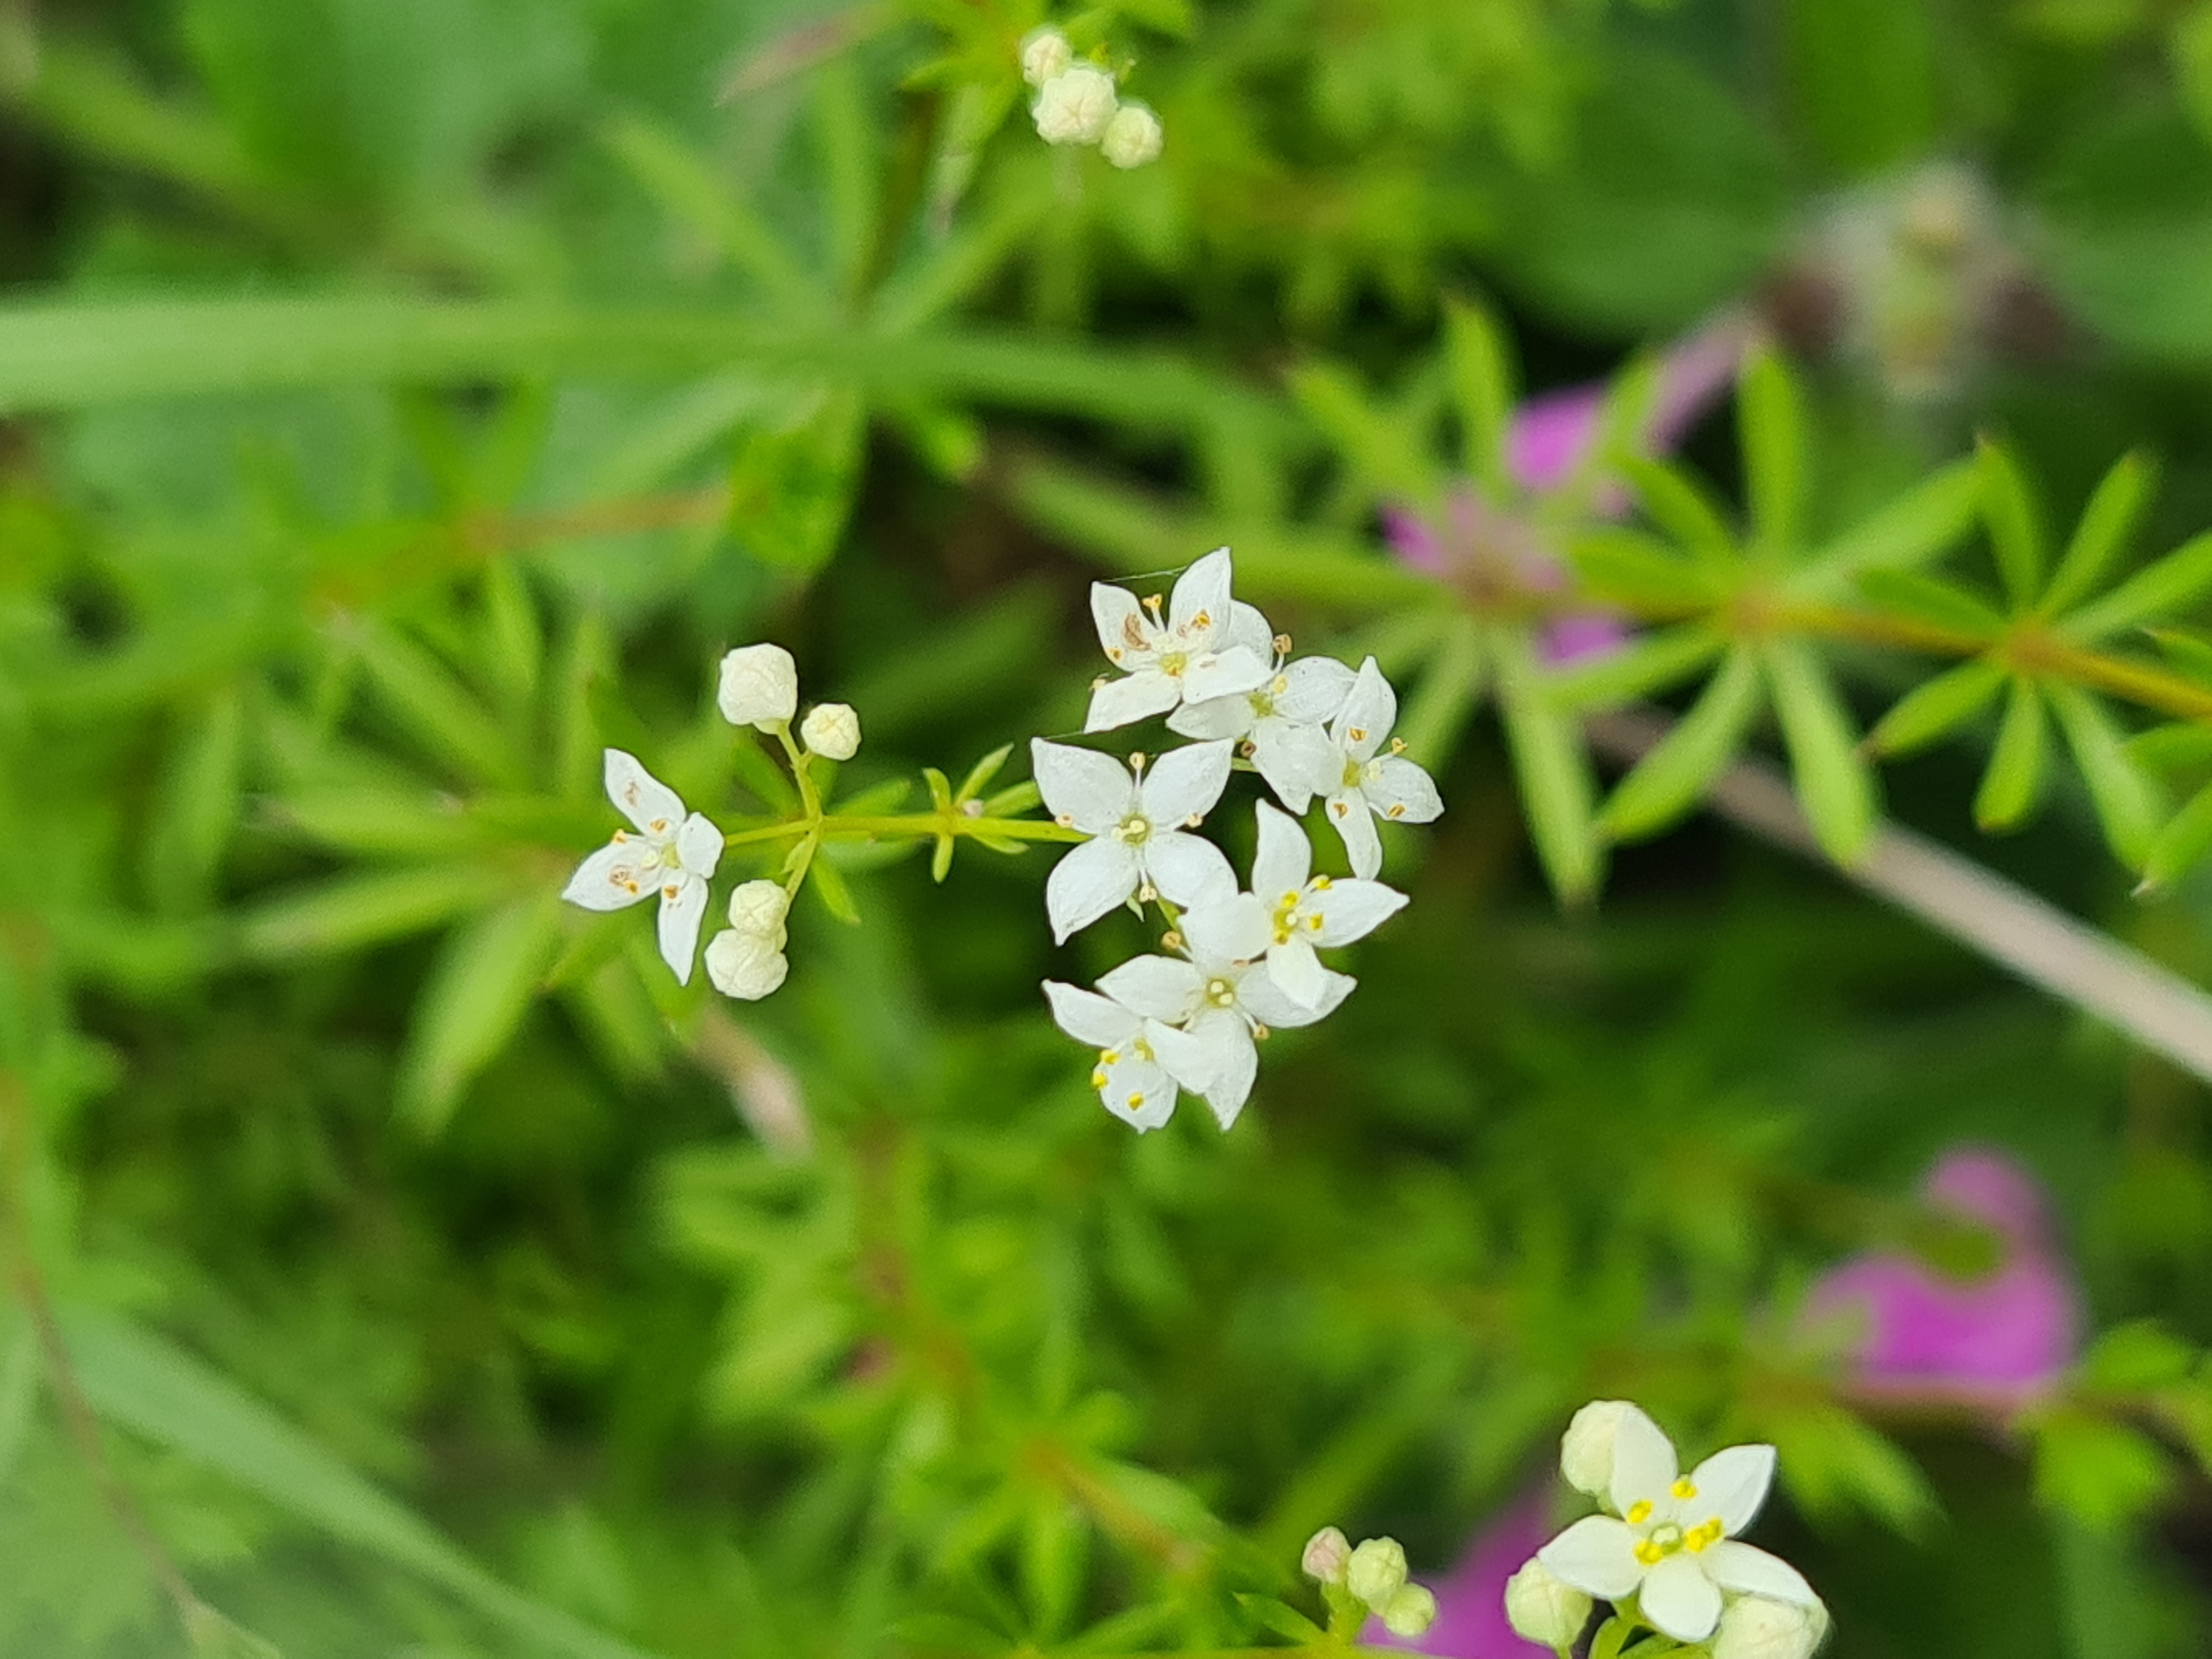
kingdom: Plantae
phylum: Tracheophyta
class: Magnoliopsida
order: Gentianales
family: Rubiaceae
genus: Galium
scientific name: Galium sterneri
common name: Liden snerre
